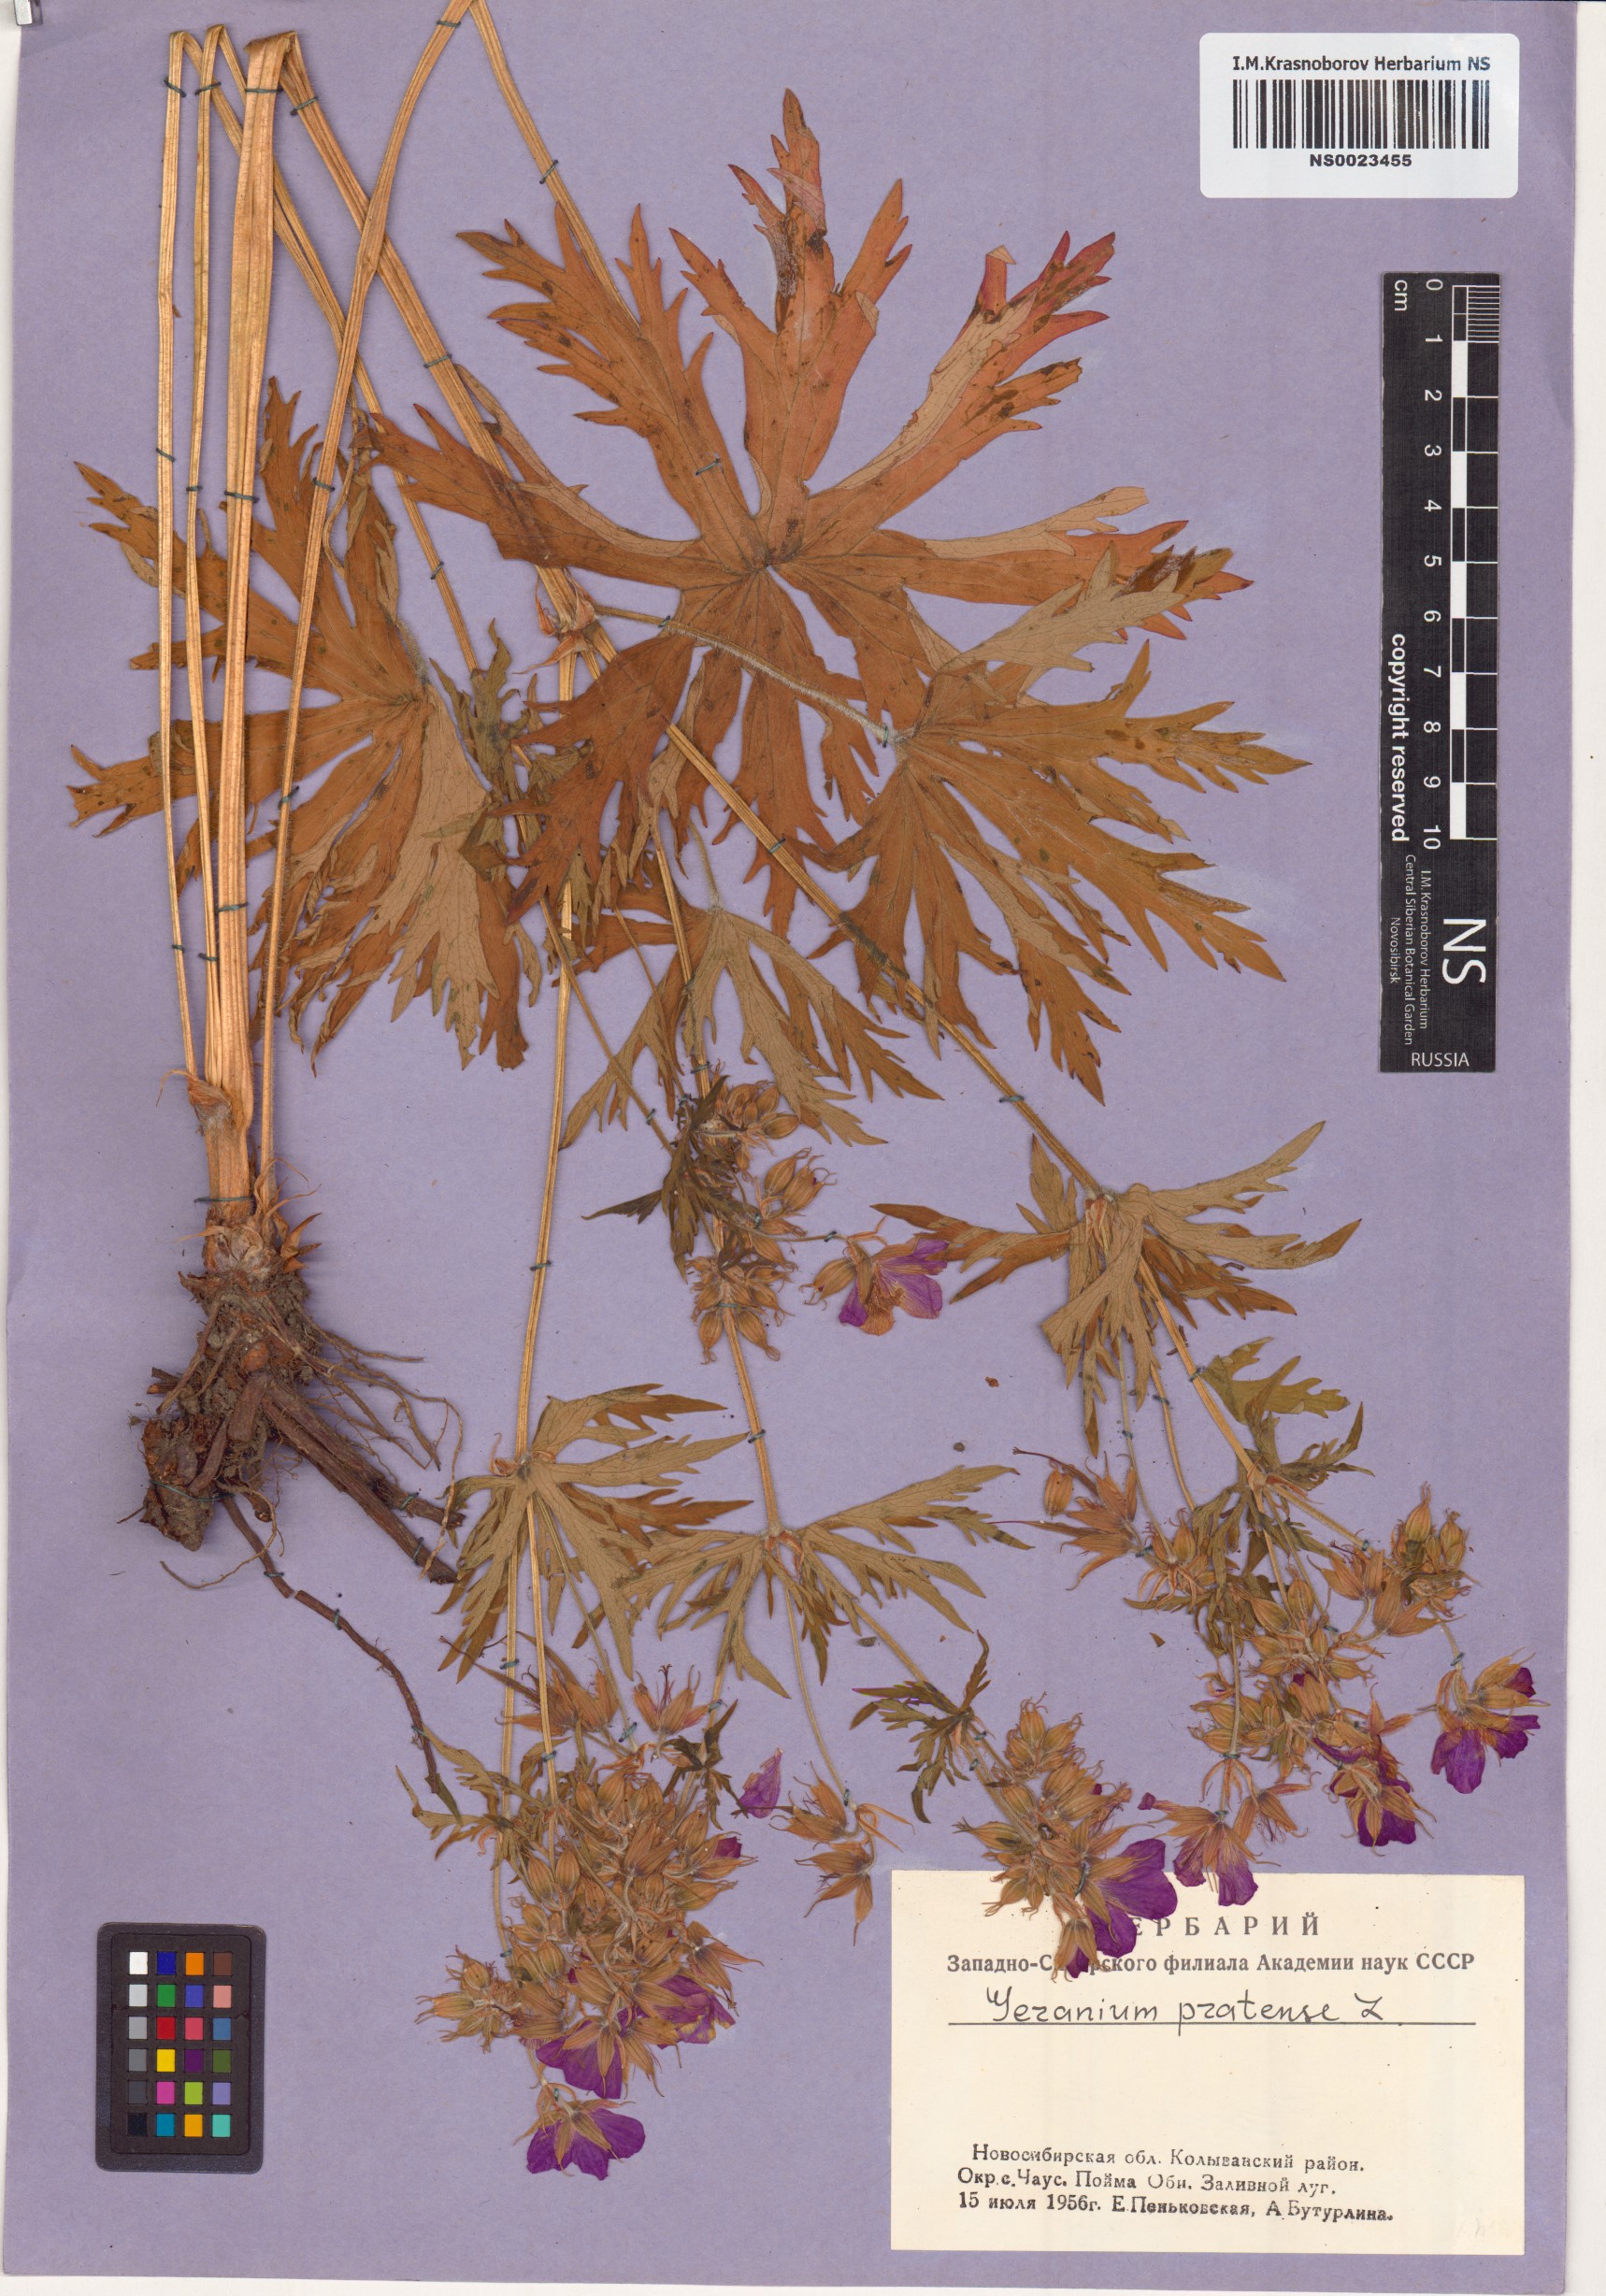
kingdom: Plantae
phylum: Tracheophyta
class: Magnoliopsida
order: Geraniales
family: Geraniaceae
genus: Geranium
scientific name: Geranium pratense
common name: Meadow crane's-bill
